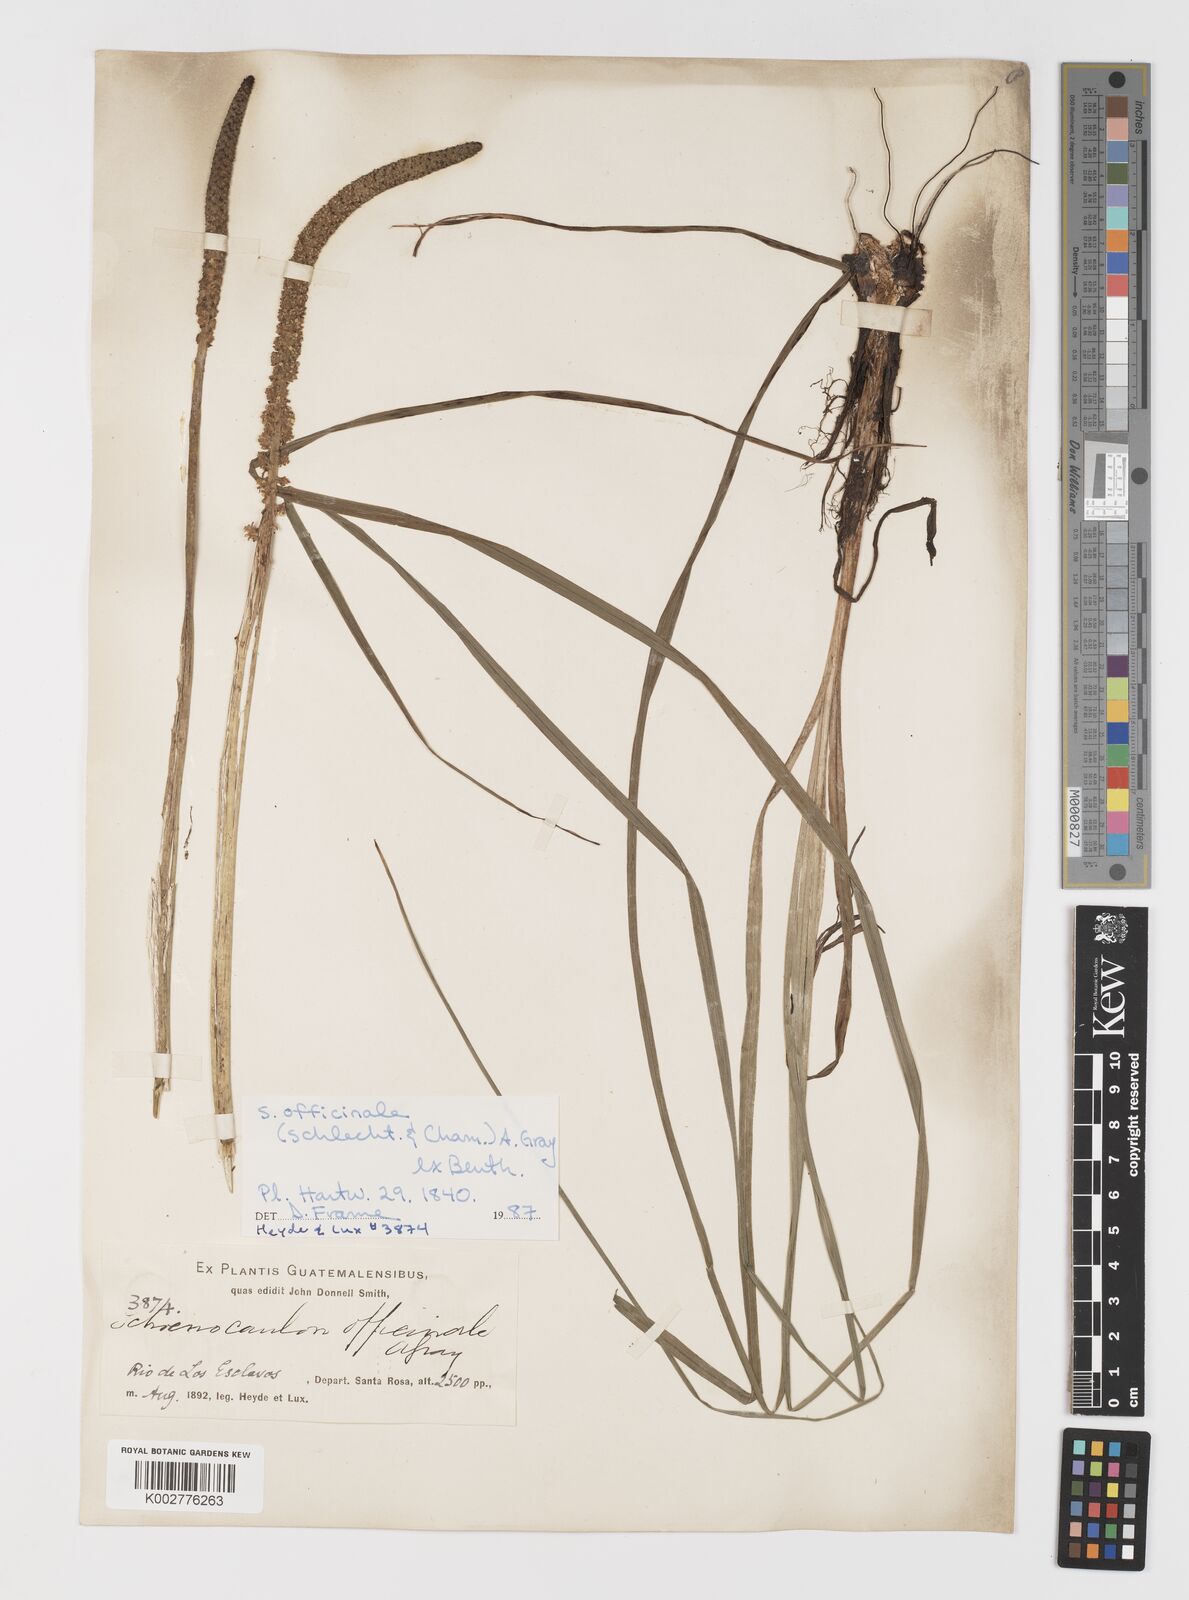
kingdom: Plantae
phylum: Tracheophyta
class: Liliopsida
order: Liliales
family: Melanthiaceae
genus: Schoenocaulon
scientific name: Schoenocaulon officinale
